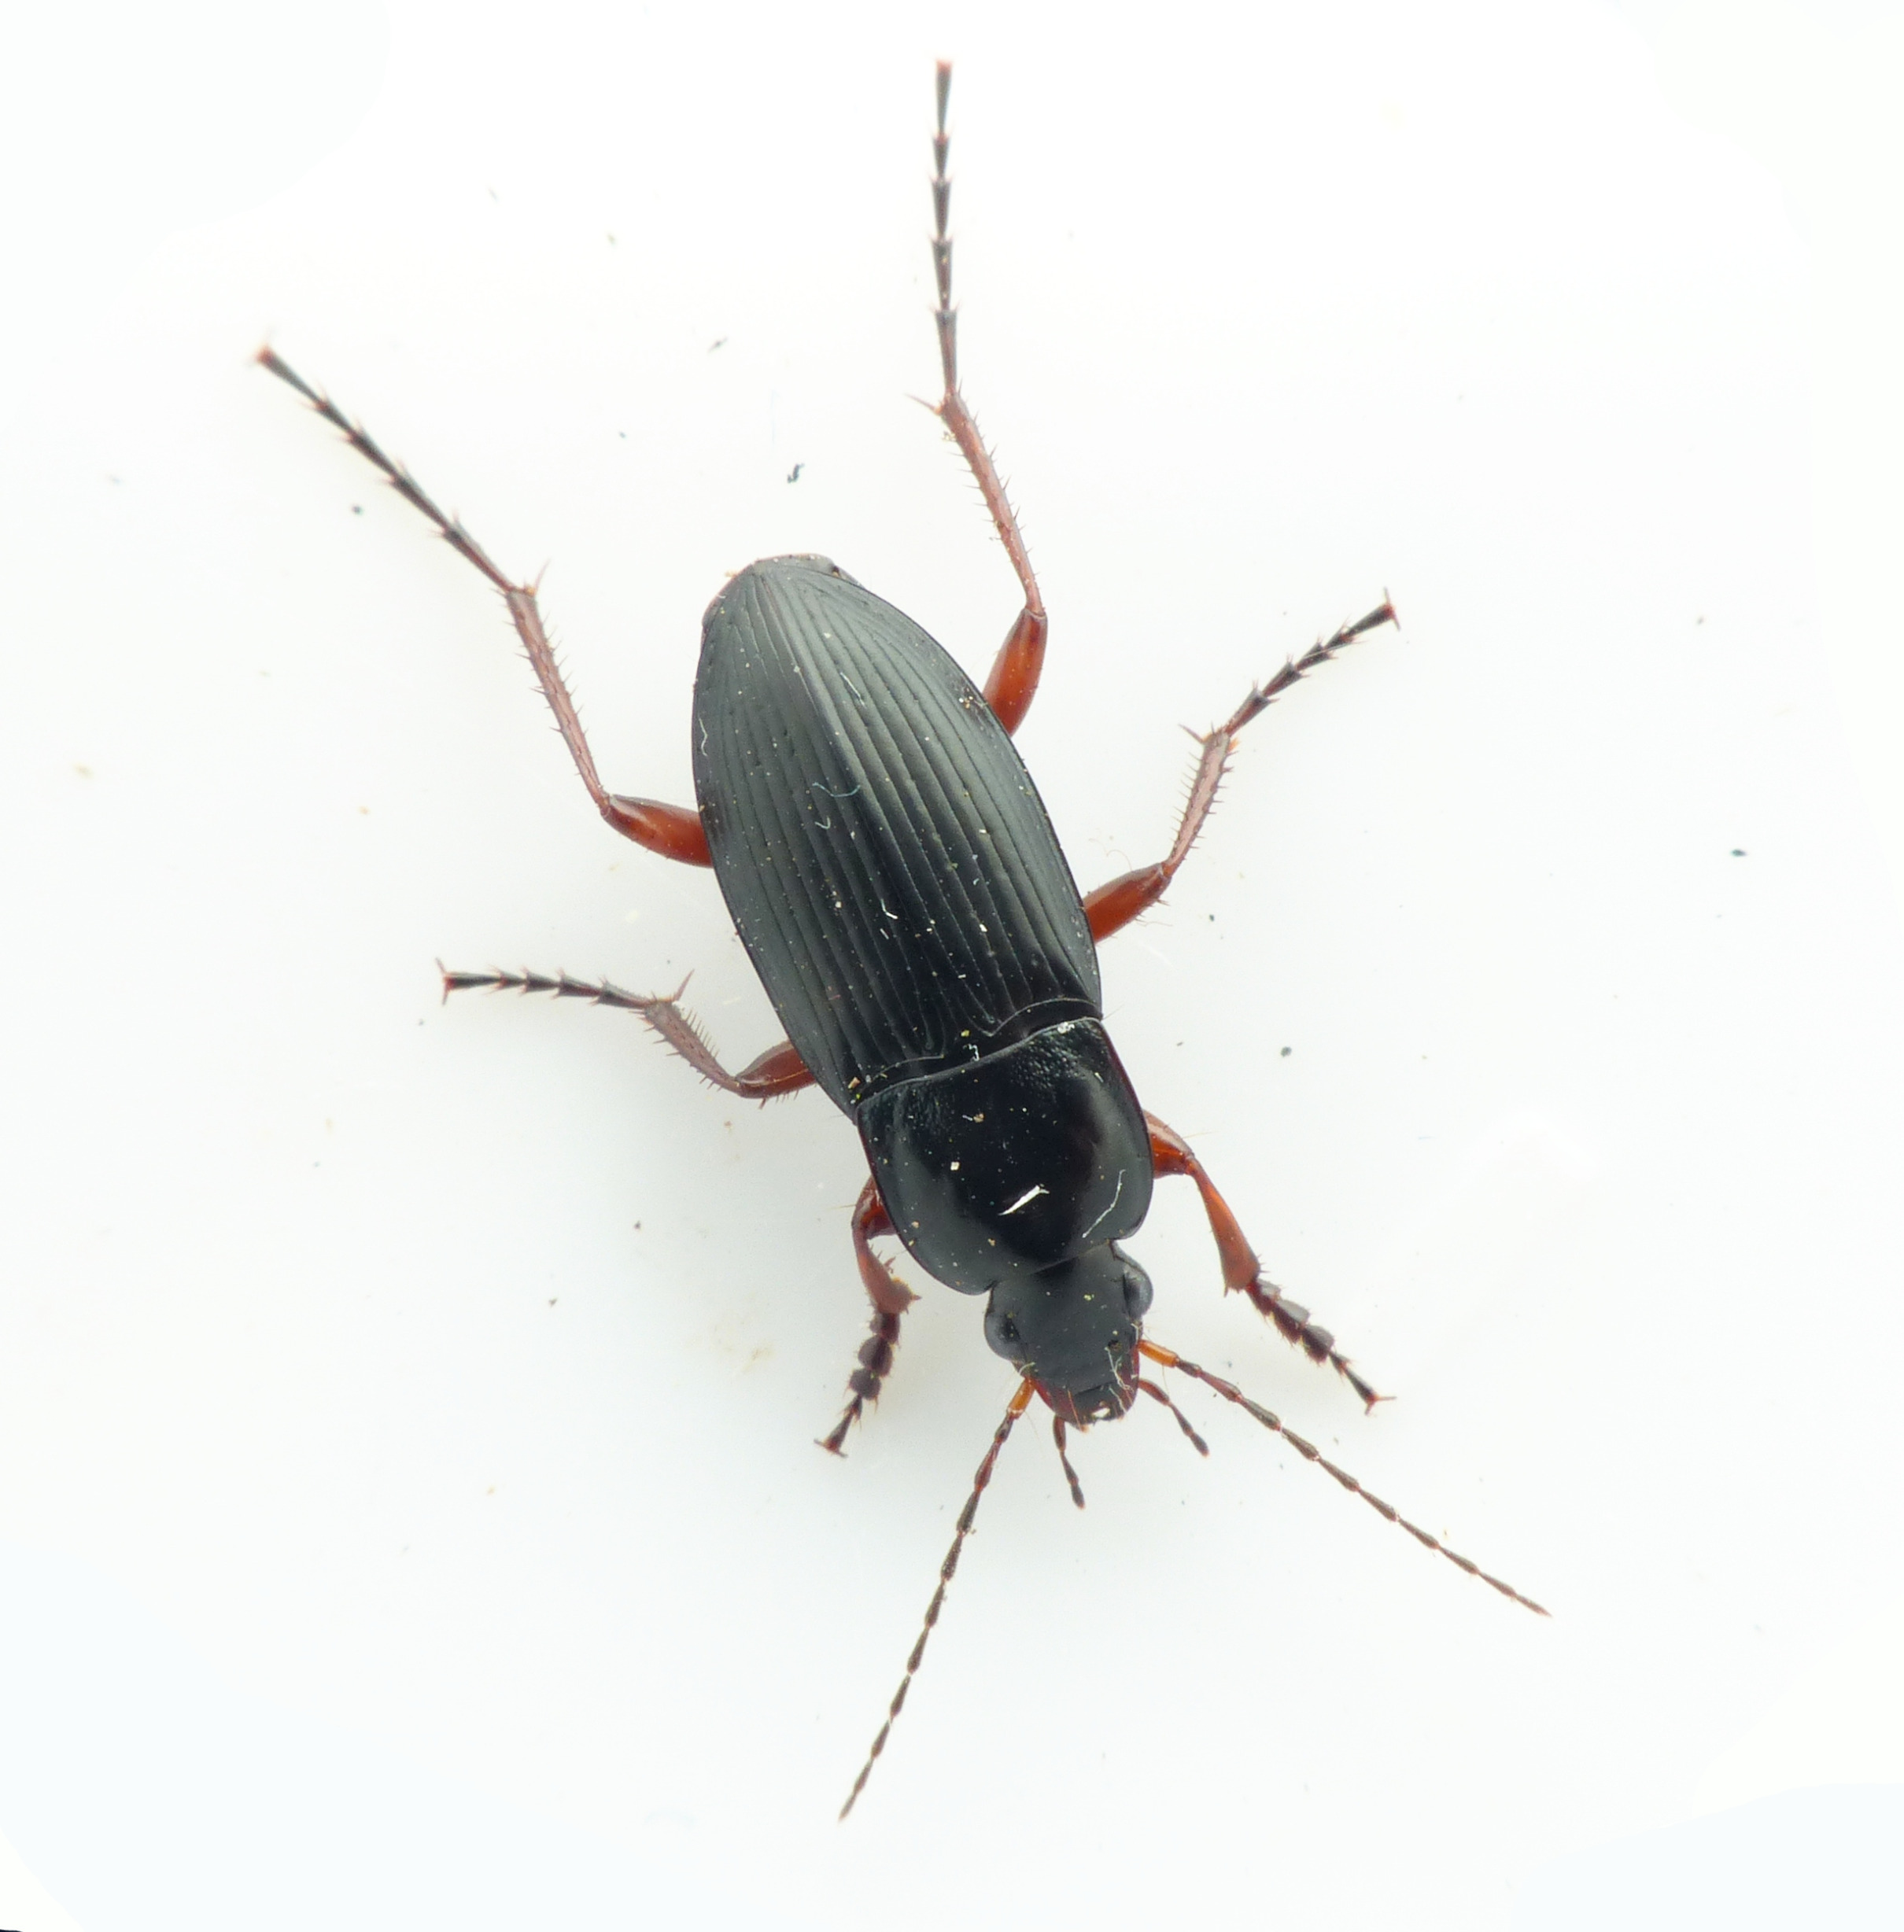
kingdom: Animalia
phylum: Arthropoda
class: Insecta
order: Coleoptera
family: Carabidae
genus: Calathus
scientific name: Calathus fuscipes
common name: Stor torpedoløber
